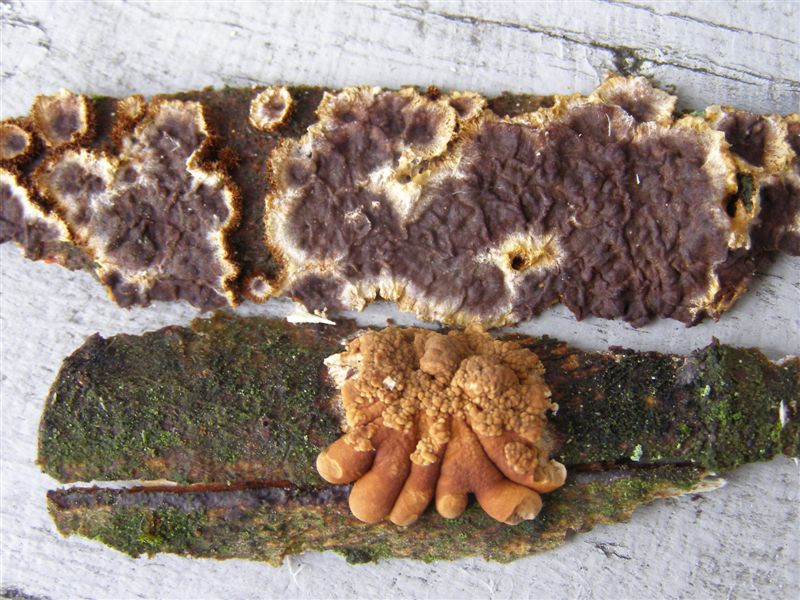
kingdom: Fungi
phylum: Ascomycota
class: Sordariomycetes
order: Hypocreales
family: Hypocreaceae
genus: Hypocreopsis
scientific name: Hypocreopsis lichenoides
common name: pilfinger
